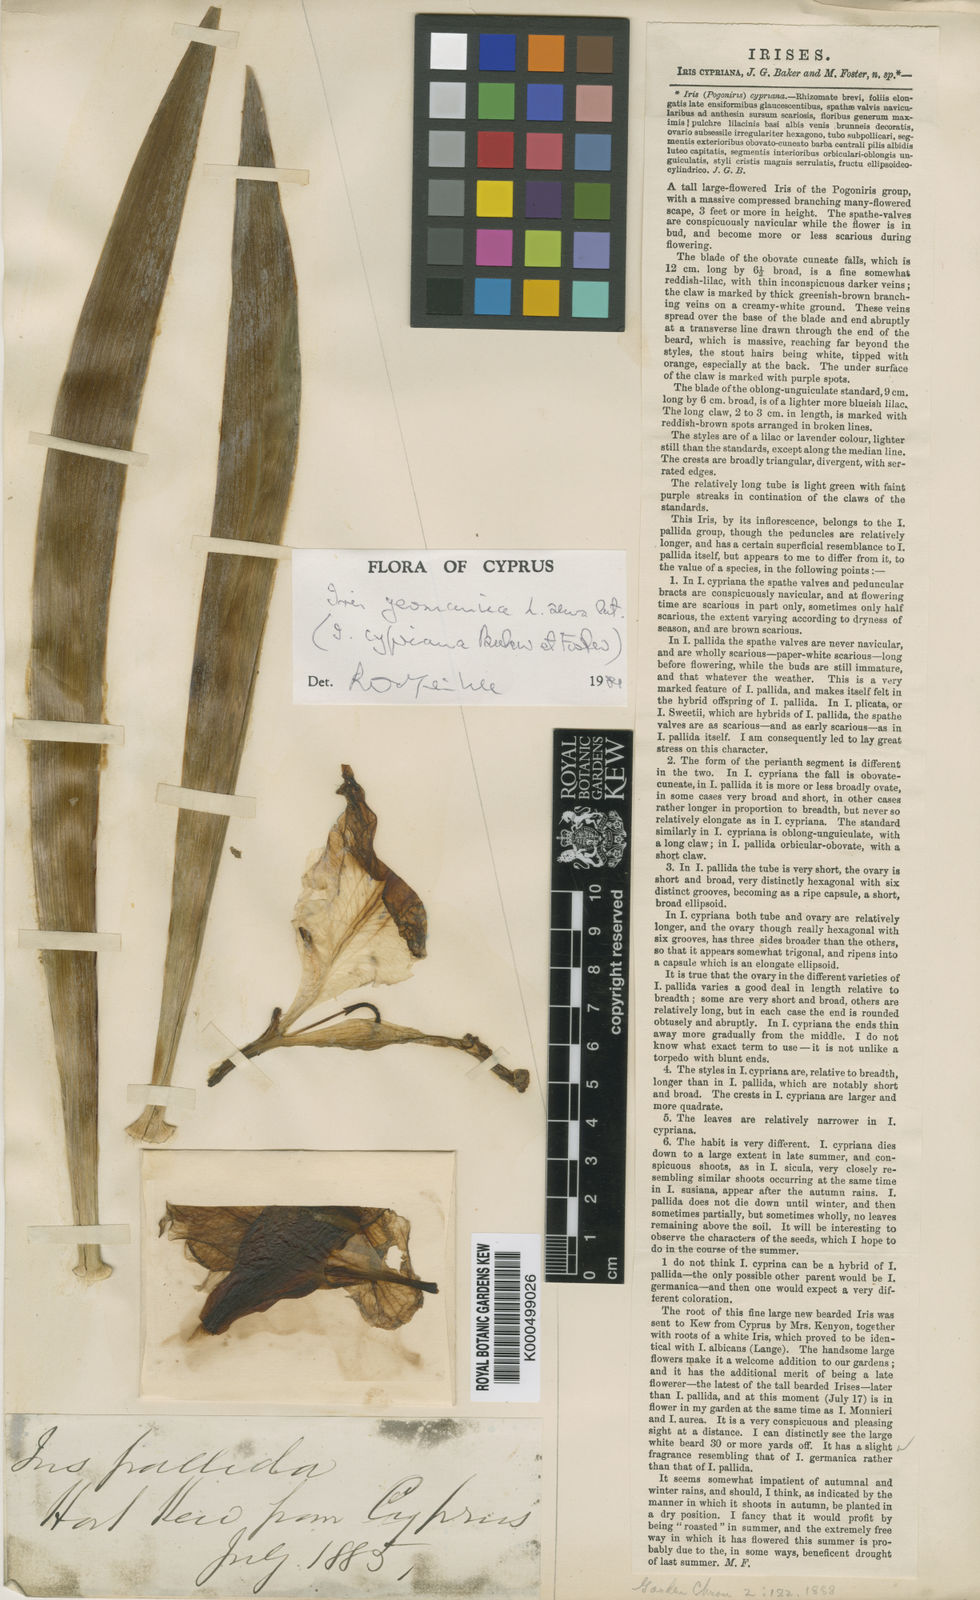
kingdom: Plantae
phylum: Tracheophyta
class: Liliopsida
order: Asparagales
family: Iridaceae
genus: Iris
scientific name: Iris germanica
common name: German iris
